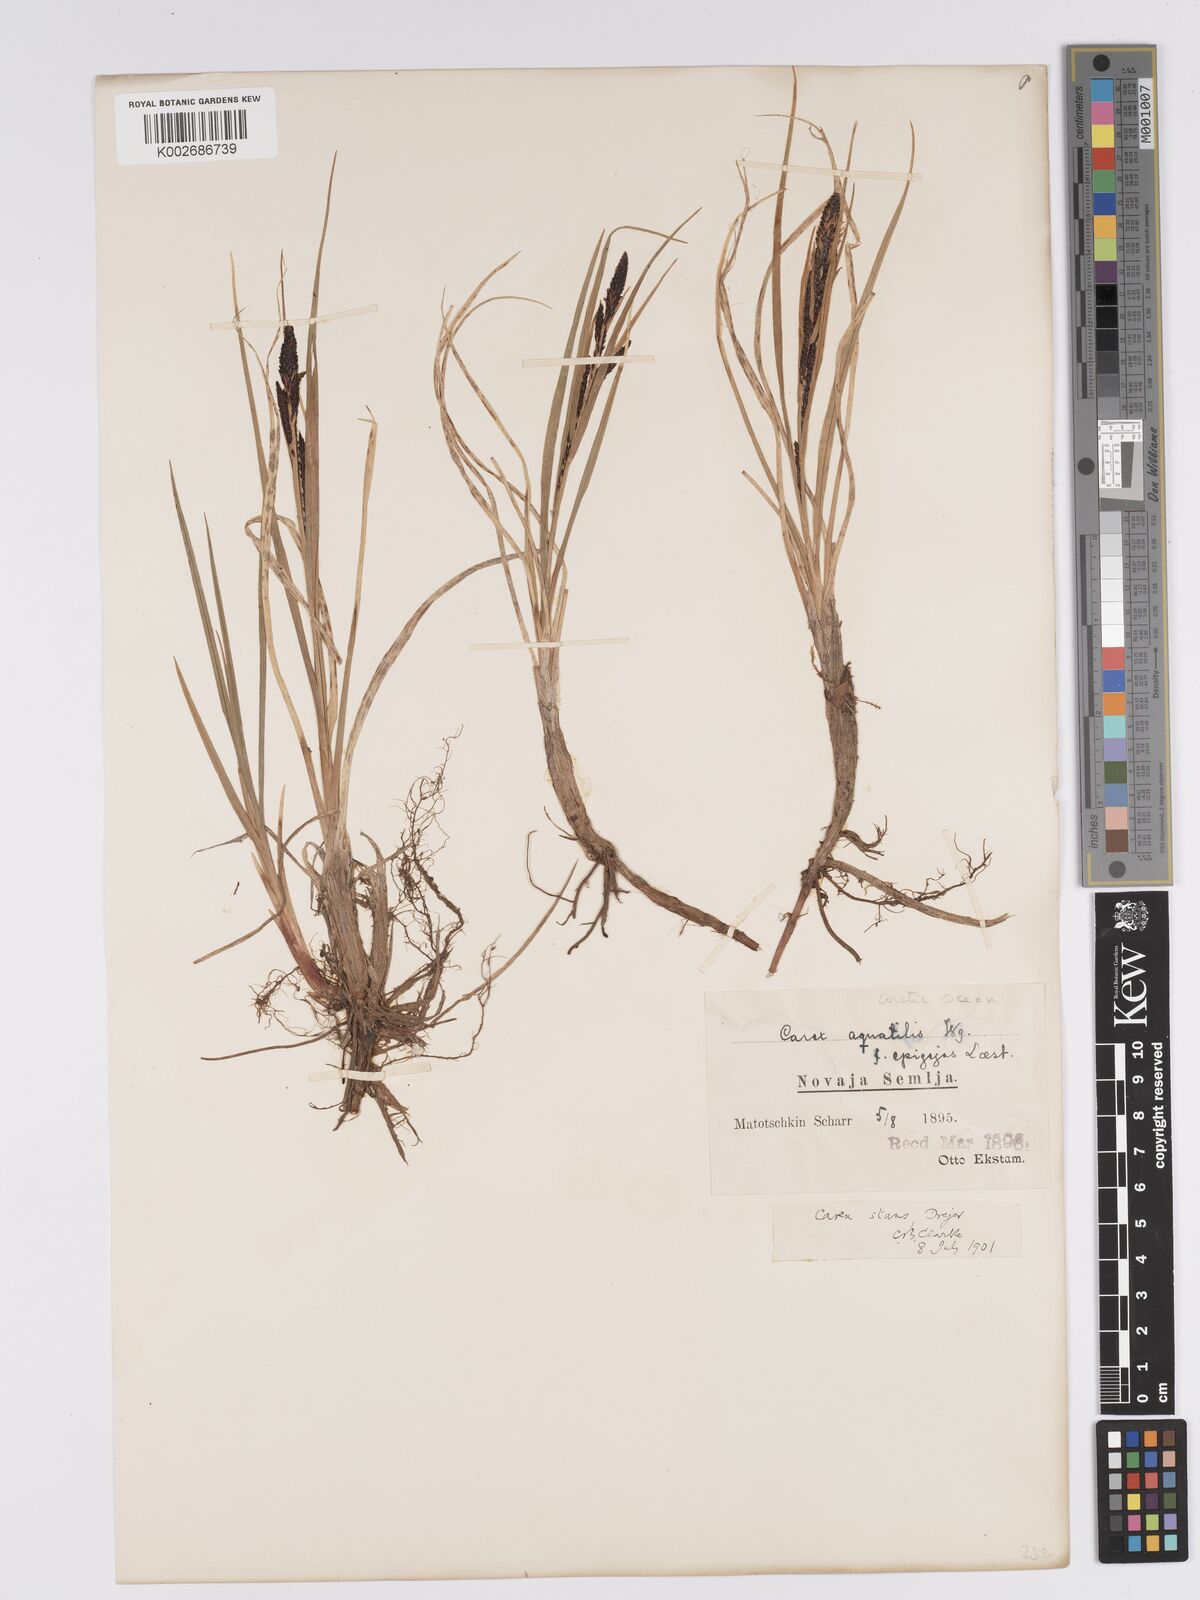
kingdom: Plantae
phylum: Tracheophyta
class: Liliopsida
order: Poales
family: Cyperaceae
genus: Carex
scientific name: Carex aquatilis
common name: Water sedge
